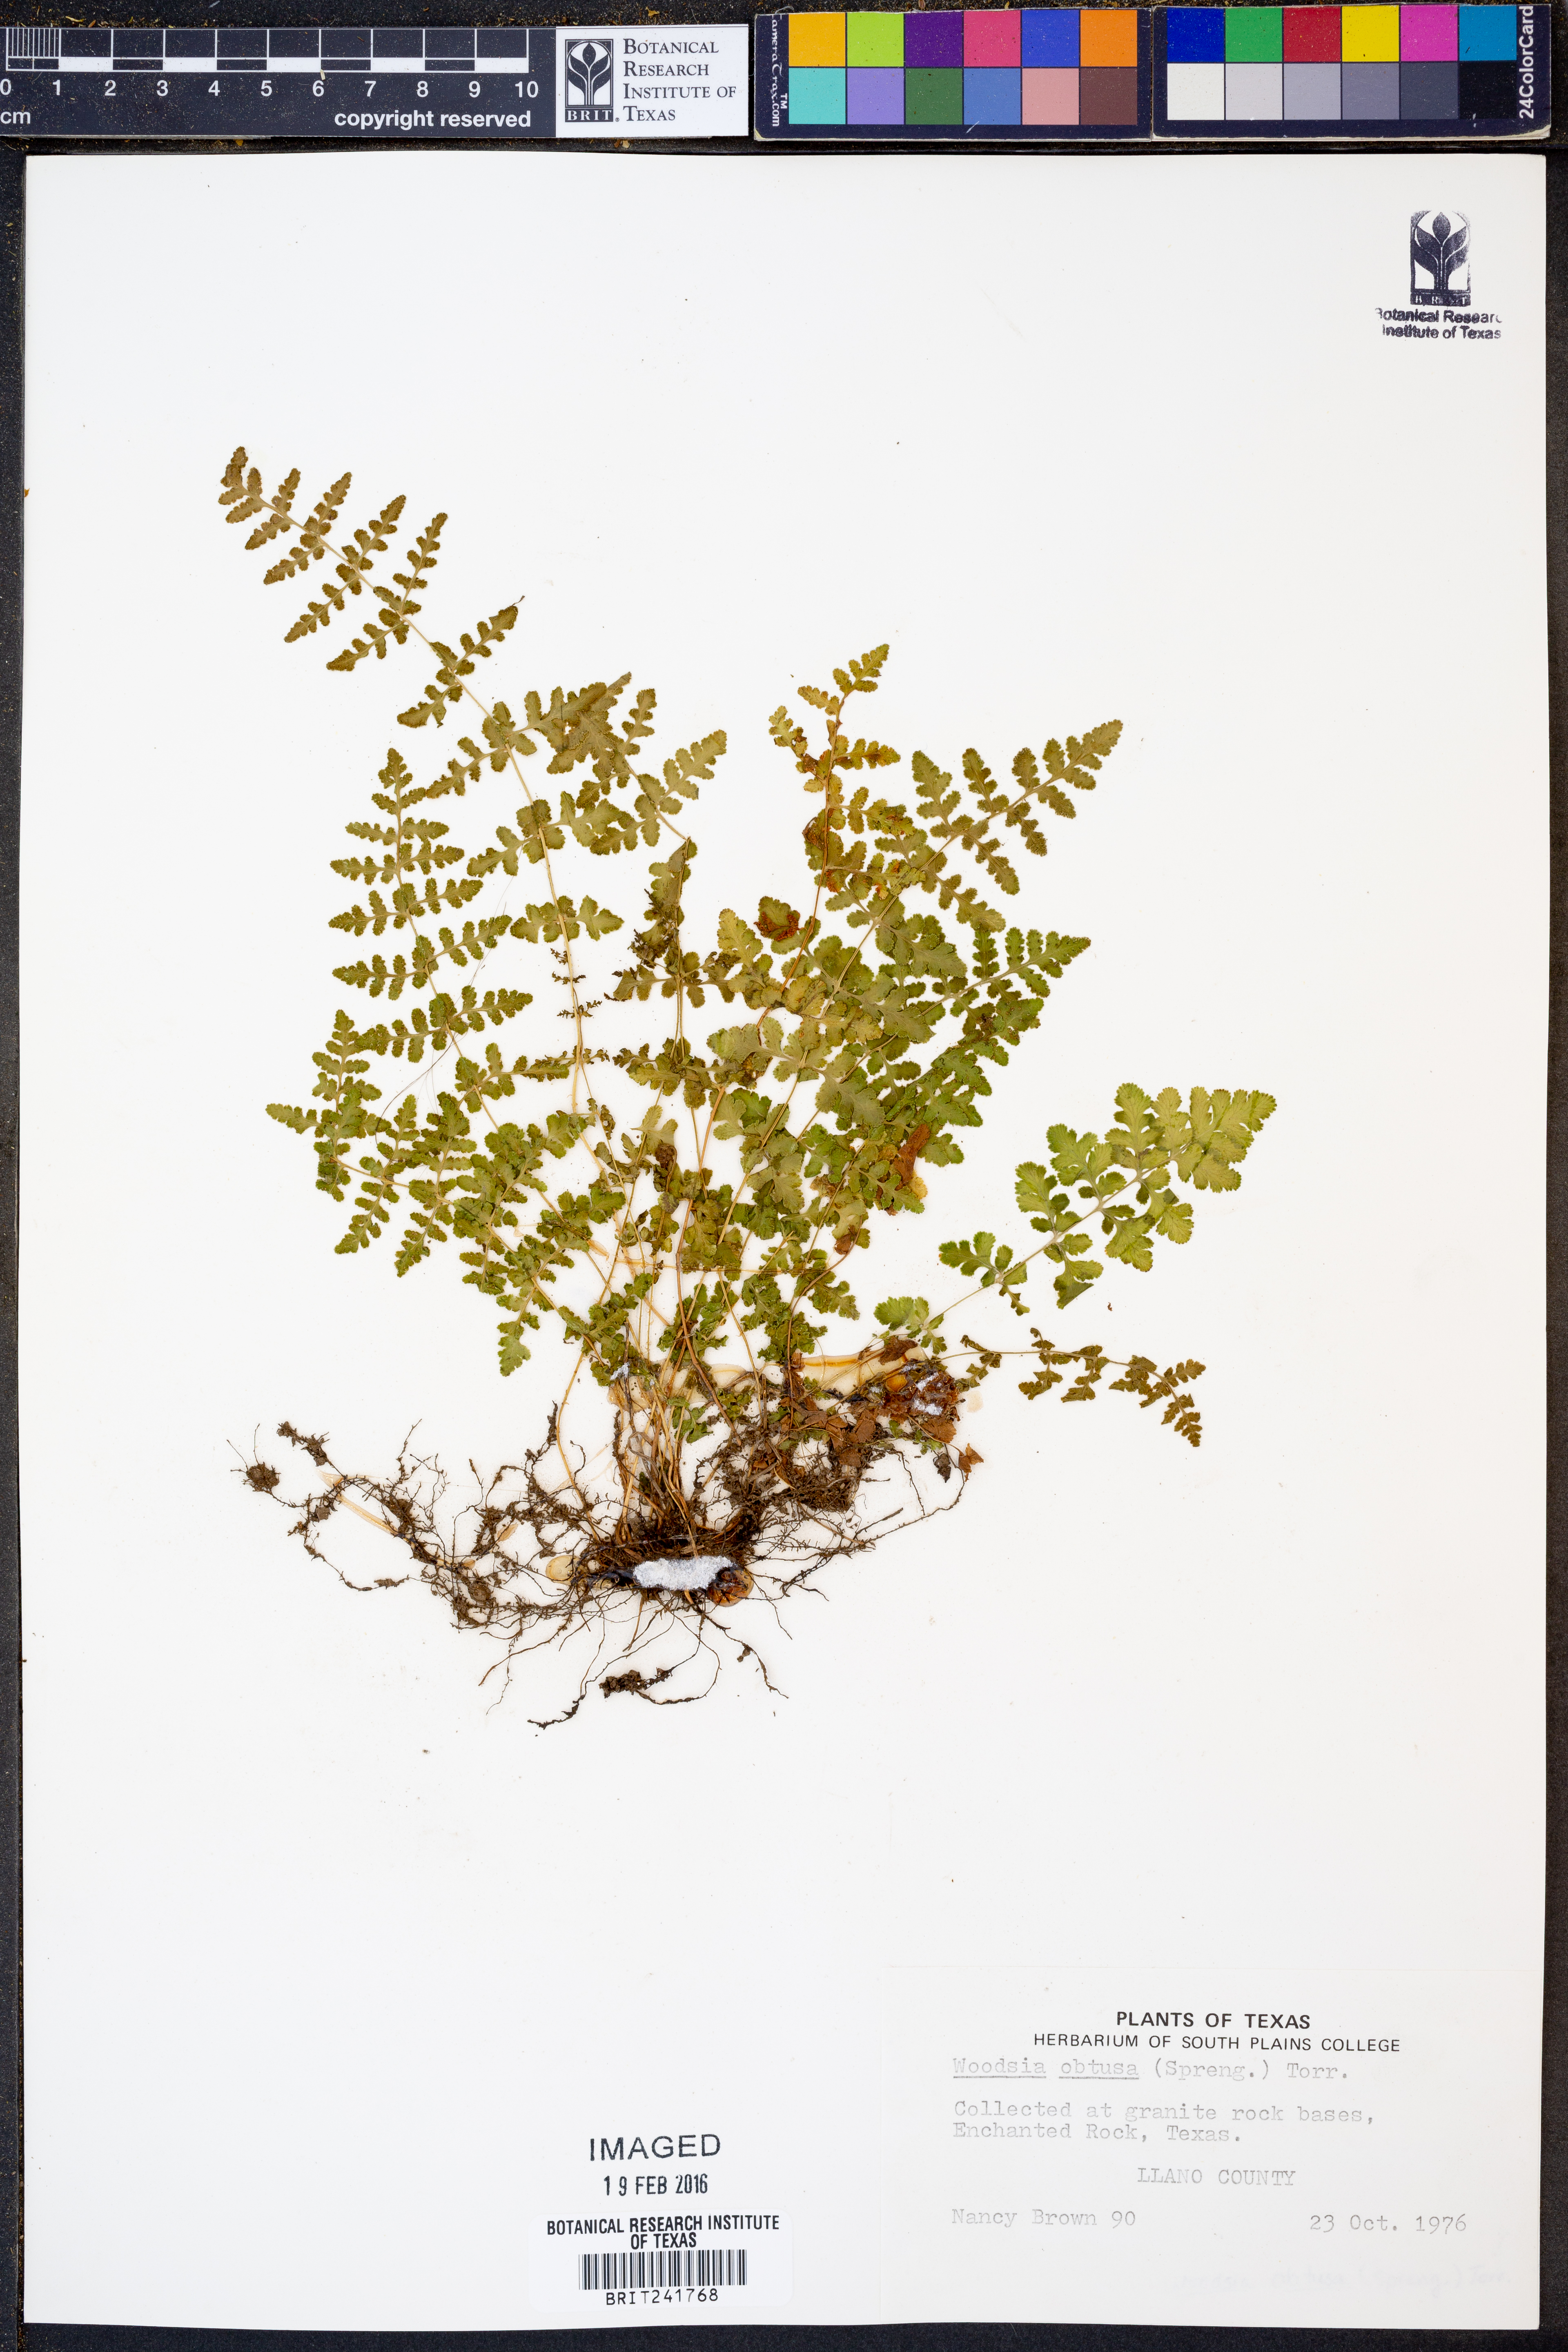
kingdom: Plantae
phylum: Tracheophyta
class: Polypodiopsida
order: Polypodiales
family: Woodsiaceae
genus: Physematium
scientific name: Physematium obtusum
